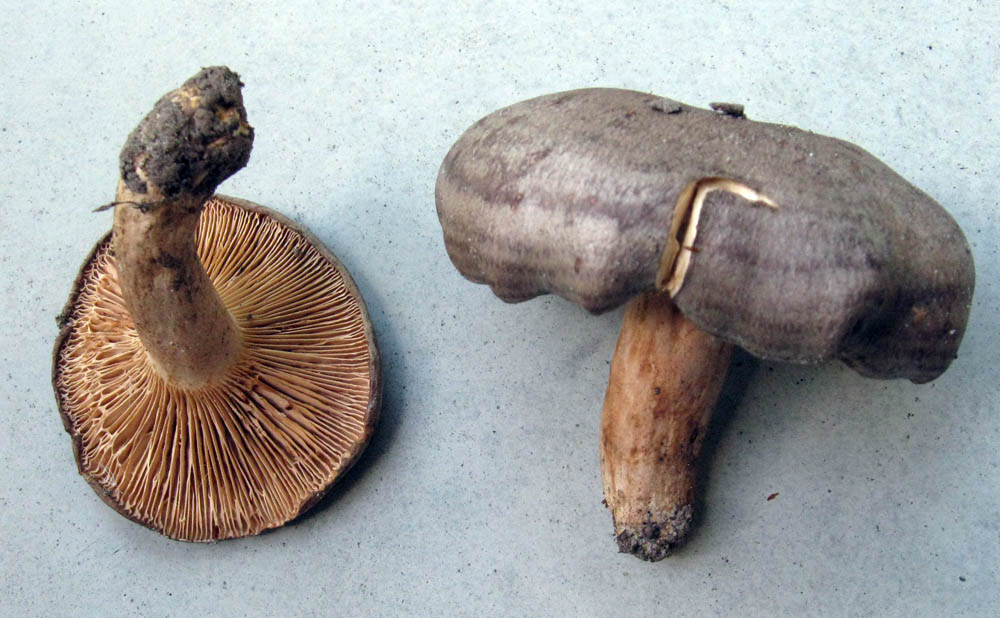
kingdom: Fungi
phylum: Basidiomycota
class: Agaricomycetes
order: Russulales
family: Russulaceae
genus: Lactarius
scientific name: Lactarius circellatus
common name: avnbøg-mælkehat
